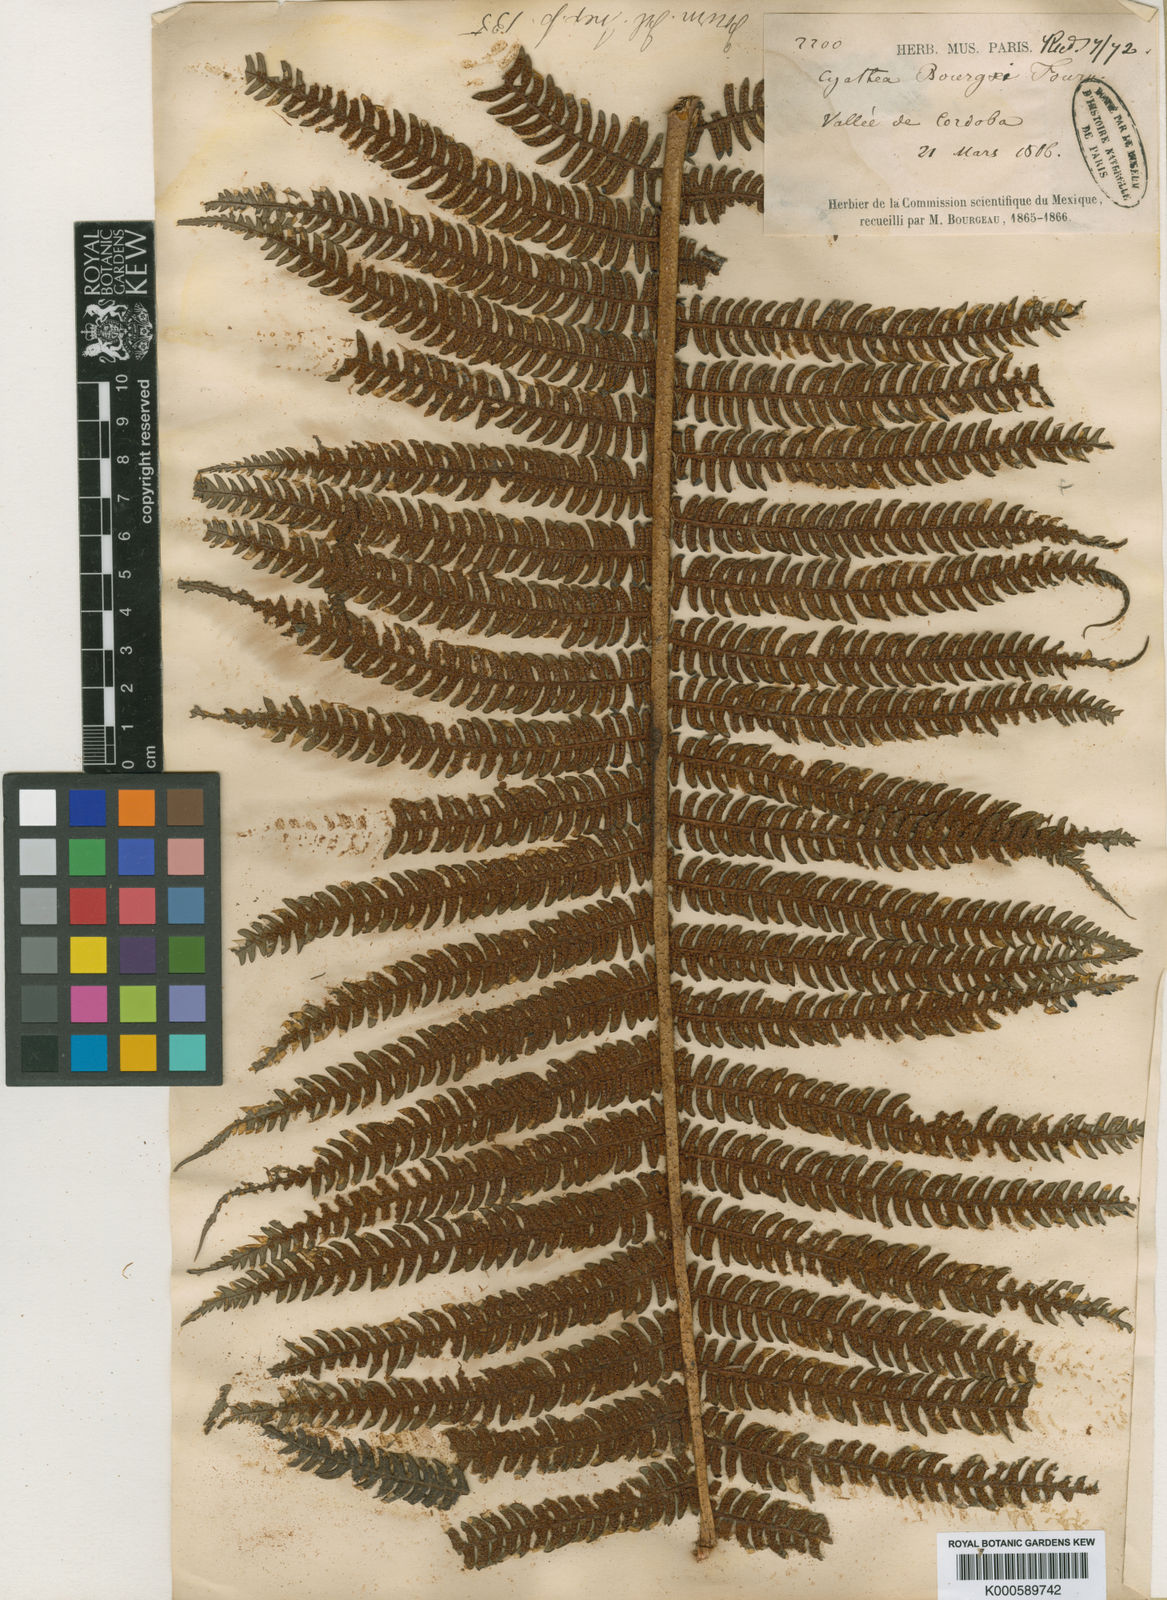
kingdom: Plantae
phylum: Tracheophyta
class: Polypodiopsida
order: Cyatheales
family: Cyatheaceae
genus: Cyathea
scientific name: Cyathea horrida
